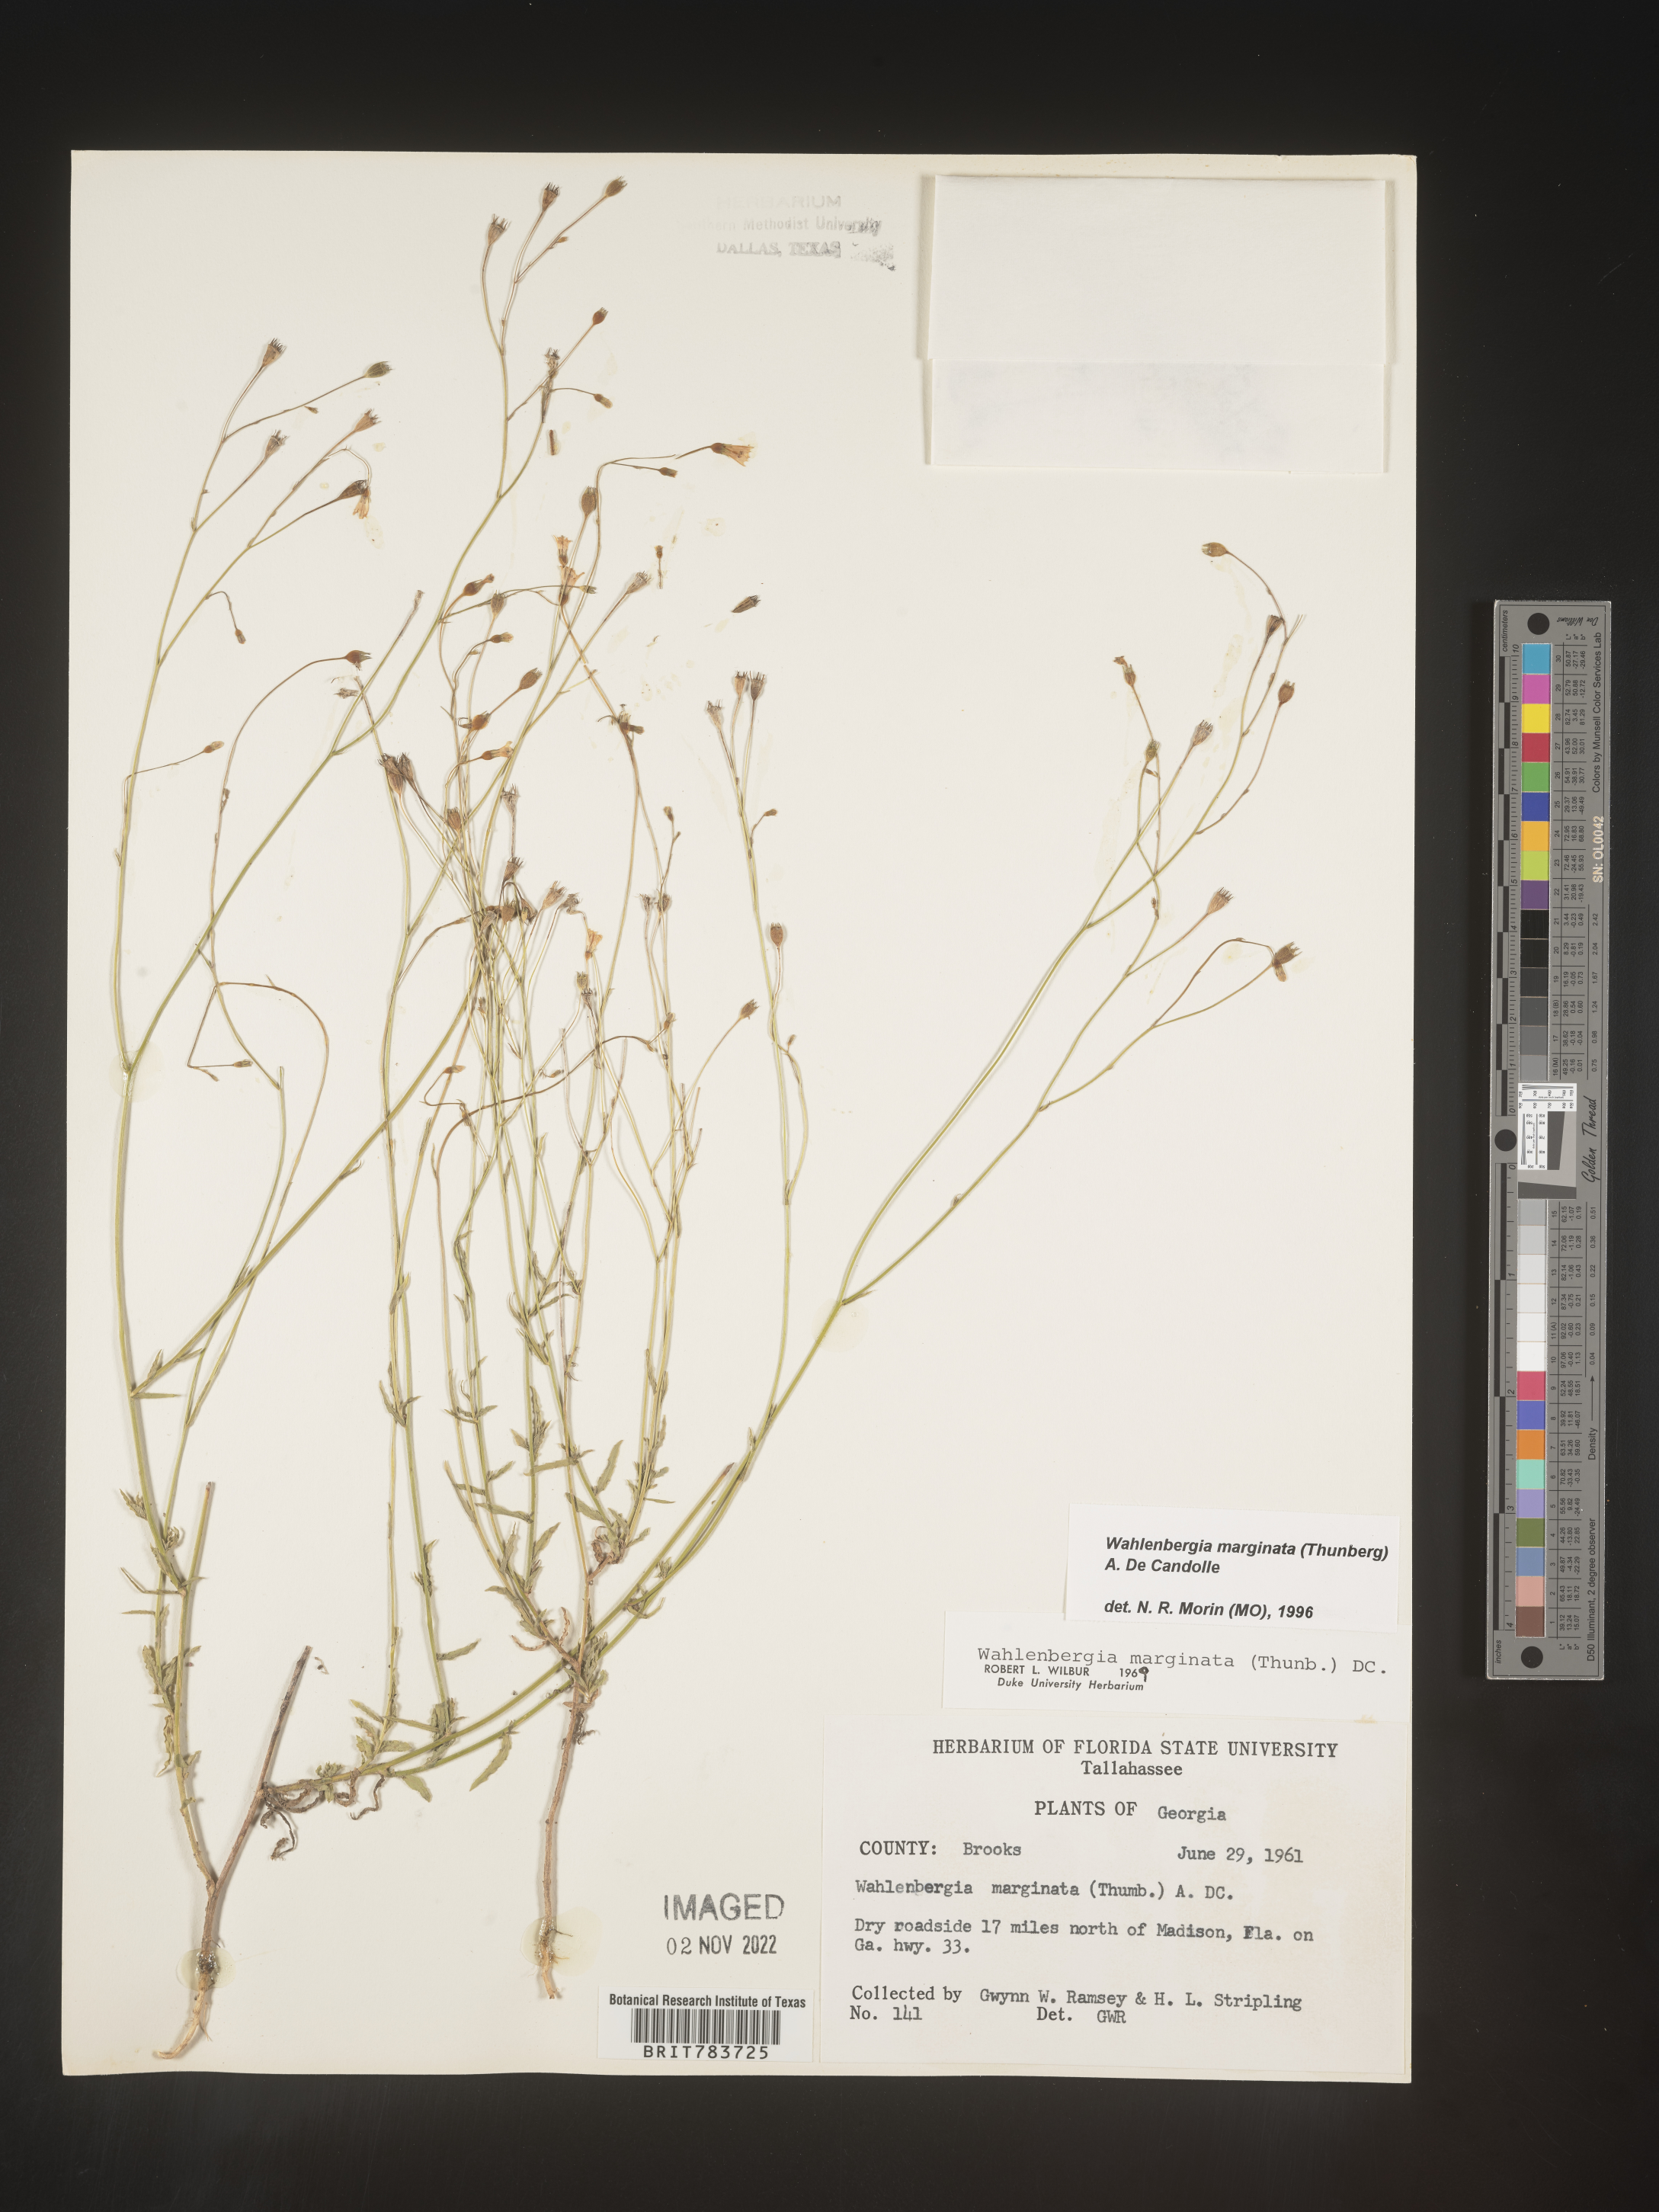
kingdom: Plantae
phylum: Tracheophyta
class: Magnoliopsida
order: Asterales
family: Campanulaceae
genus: Wahlenbergia
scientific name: Wahlenbergia marginata
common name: Southern rockbell
